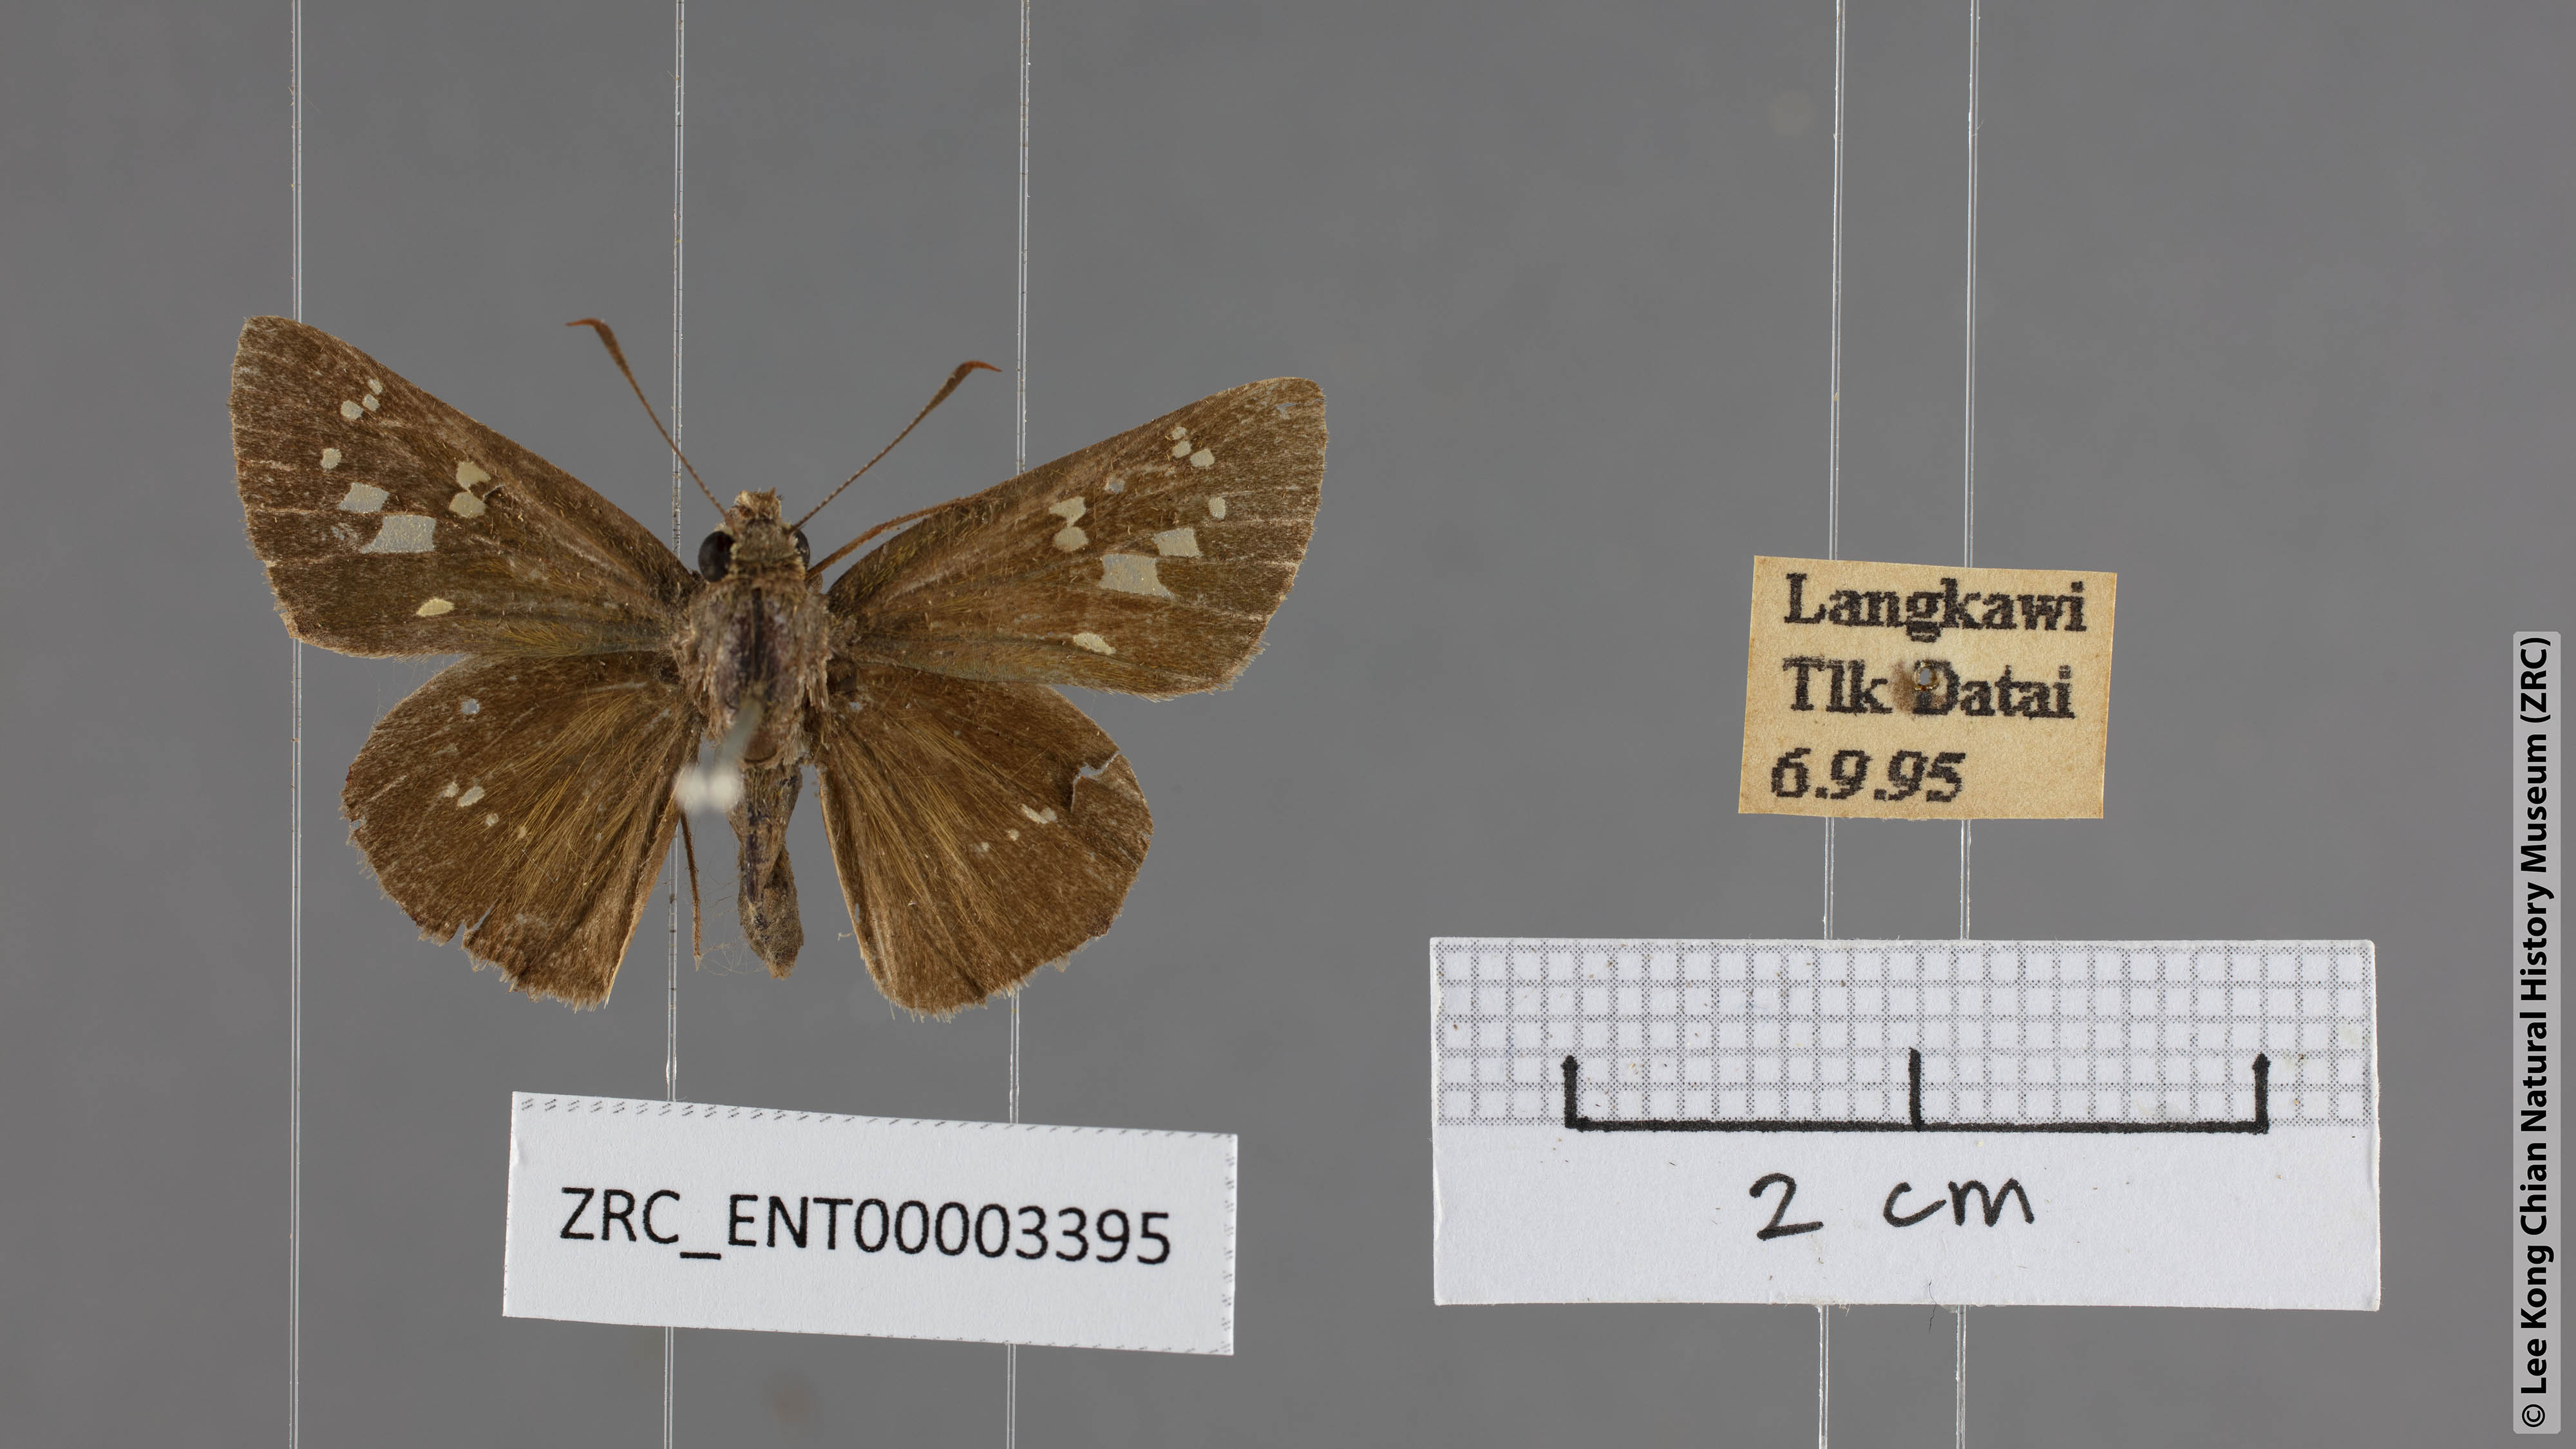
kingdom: Animalia
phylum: Arthropoda
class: Insecta
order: Lepidoptera
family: Hesperiidae
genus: Pelopidas
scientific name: Pelopidas agna
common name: Little branded swift
